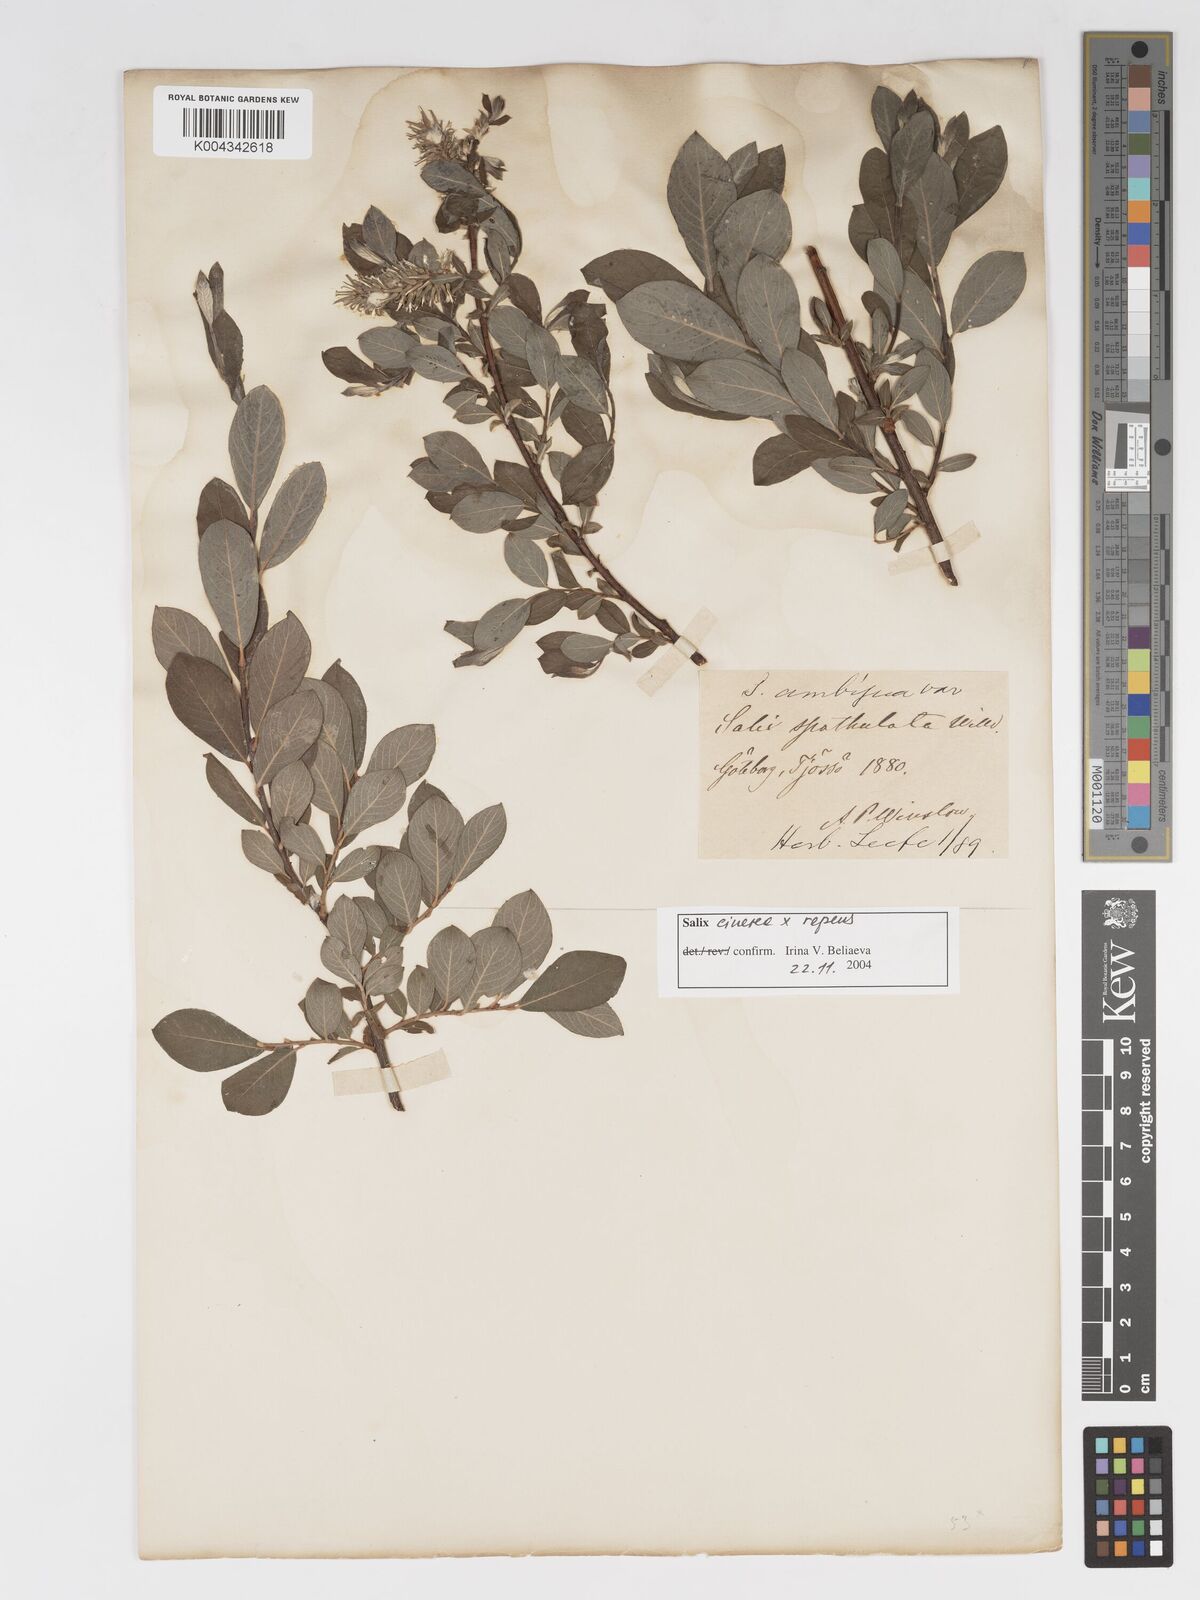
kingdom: Plantae
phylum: Tracheophyta
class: Magnoliopsida
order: Malpighiales
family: Salicaceae
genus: Salix
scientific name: Salix cinerea
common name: Common sallow
